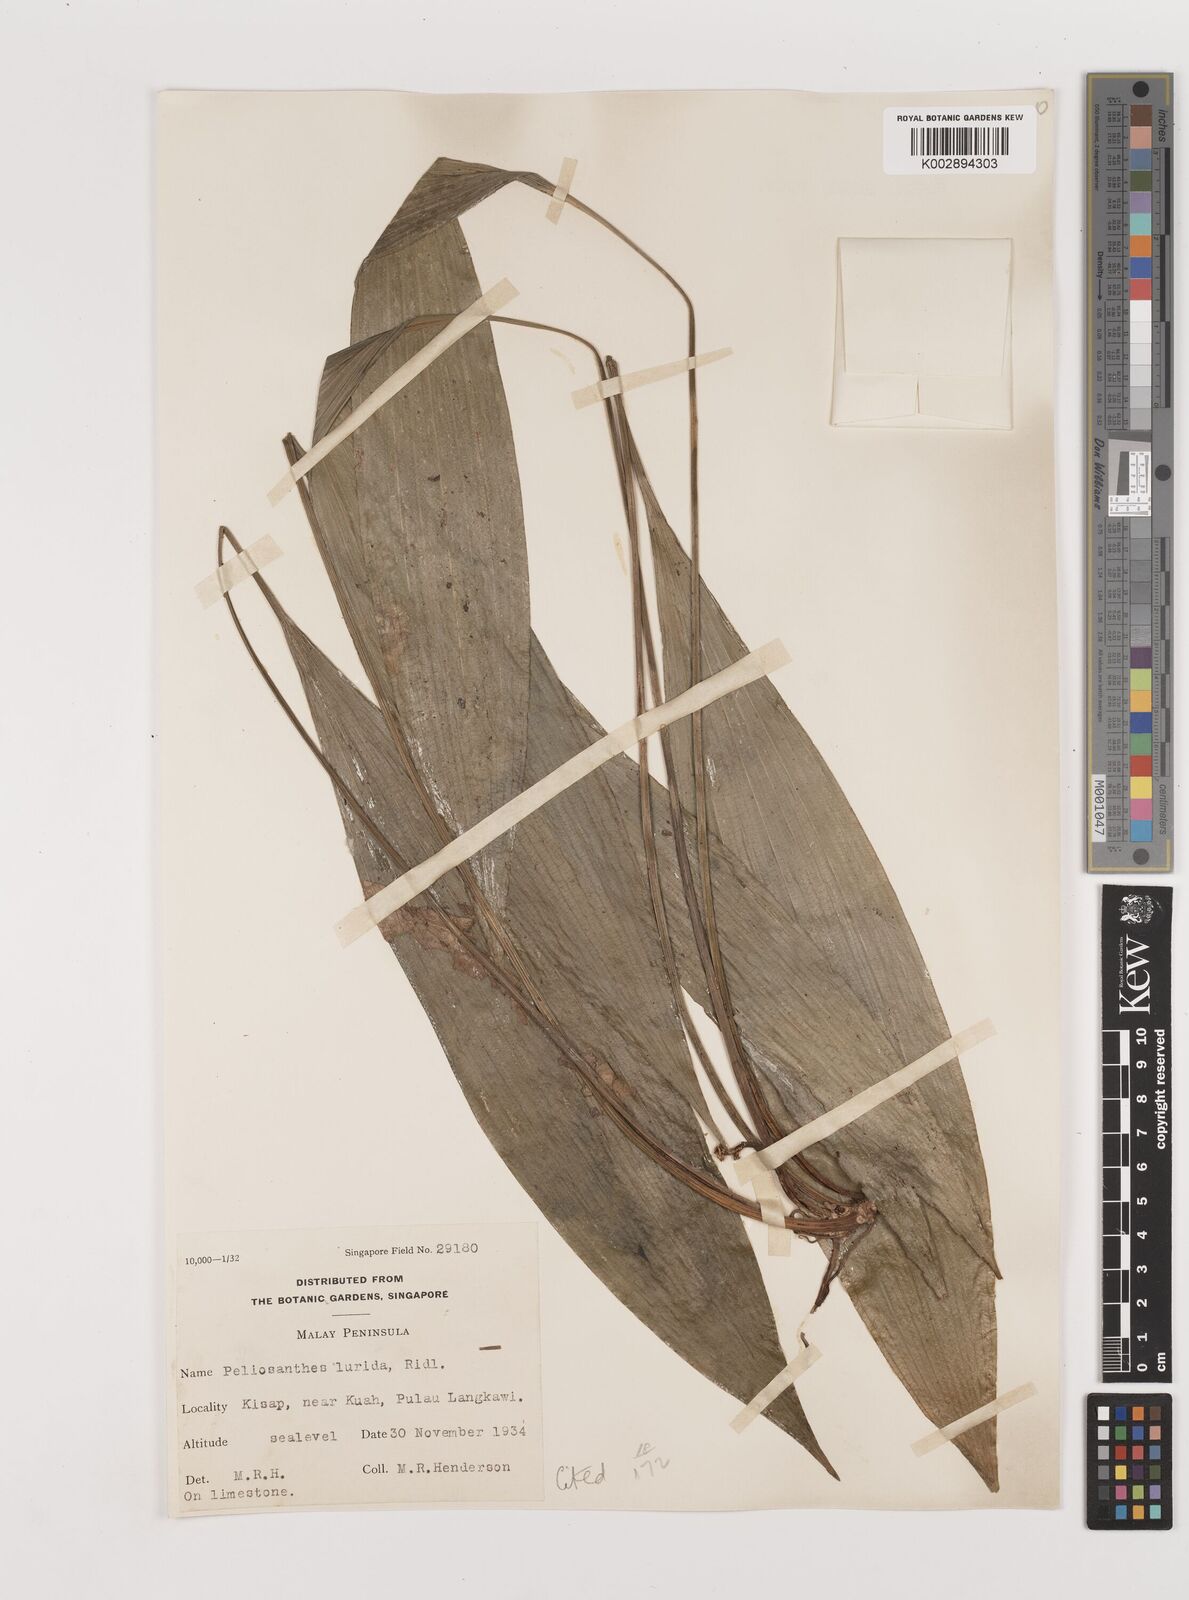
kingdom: Plantae
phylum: Tracheophyta
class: Liliopsida
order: Asparagales
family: Asparagaceae
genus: Peliosanthes
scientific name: Peliosanthes teta
